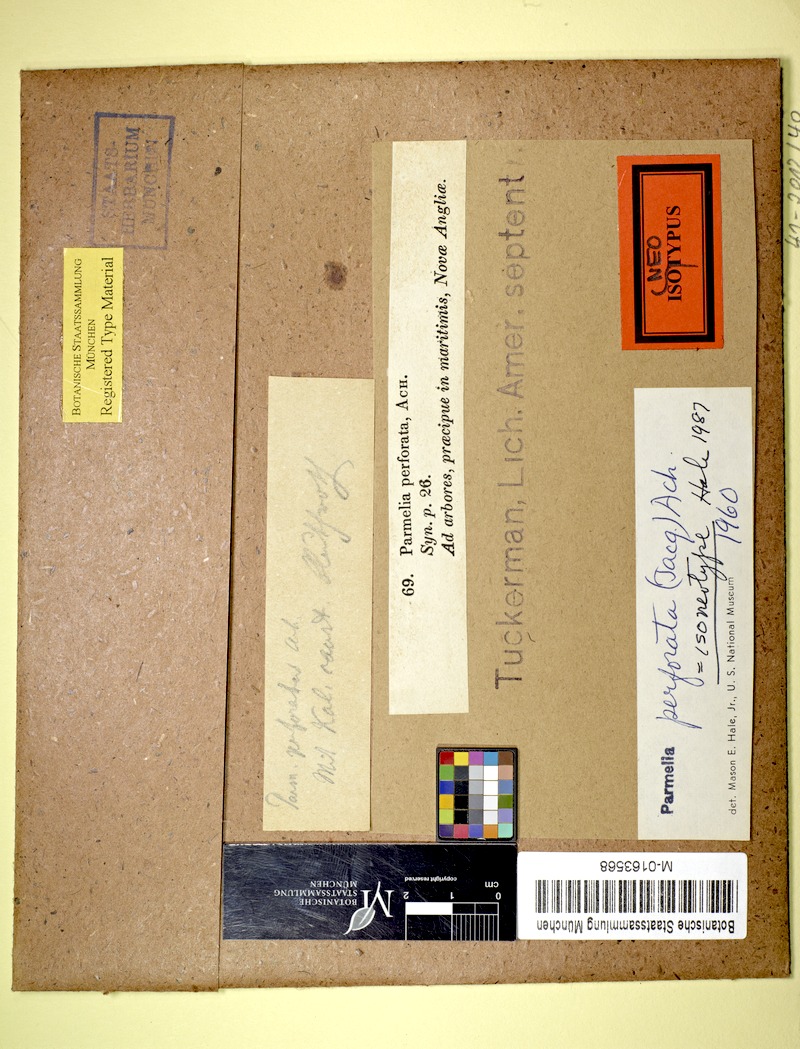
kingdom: Fungi
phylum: Ascomycota
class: Lecanoromycetes
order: Lecanorales
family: Parmeliaceae
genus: Parmotrema
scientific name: Parmotrema reticulatum
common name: Black sheet lichen
